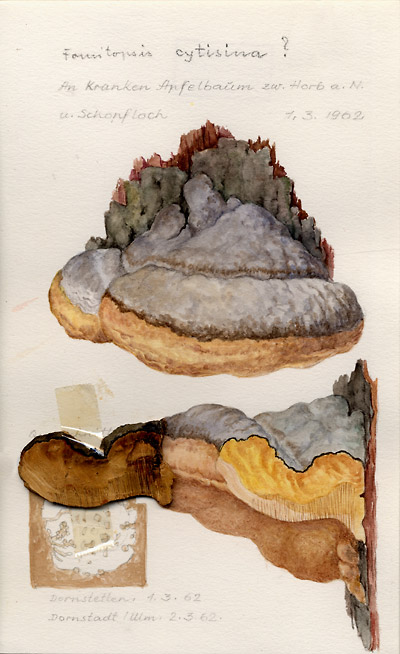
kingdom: Fungi
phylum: Basidiomycota
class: Agaricomycetes
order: Polyporales
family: Polyporaceae
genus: Vanderbylia
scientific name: Vanderbylia fraxinea
